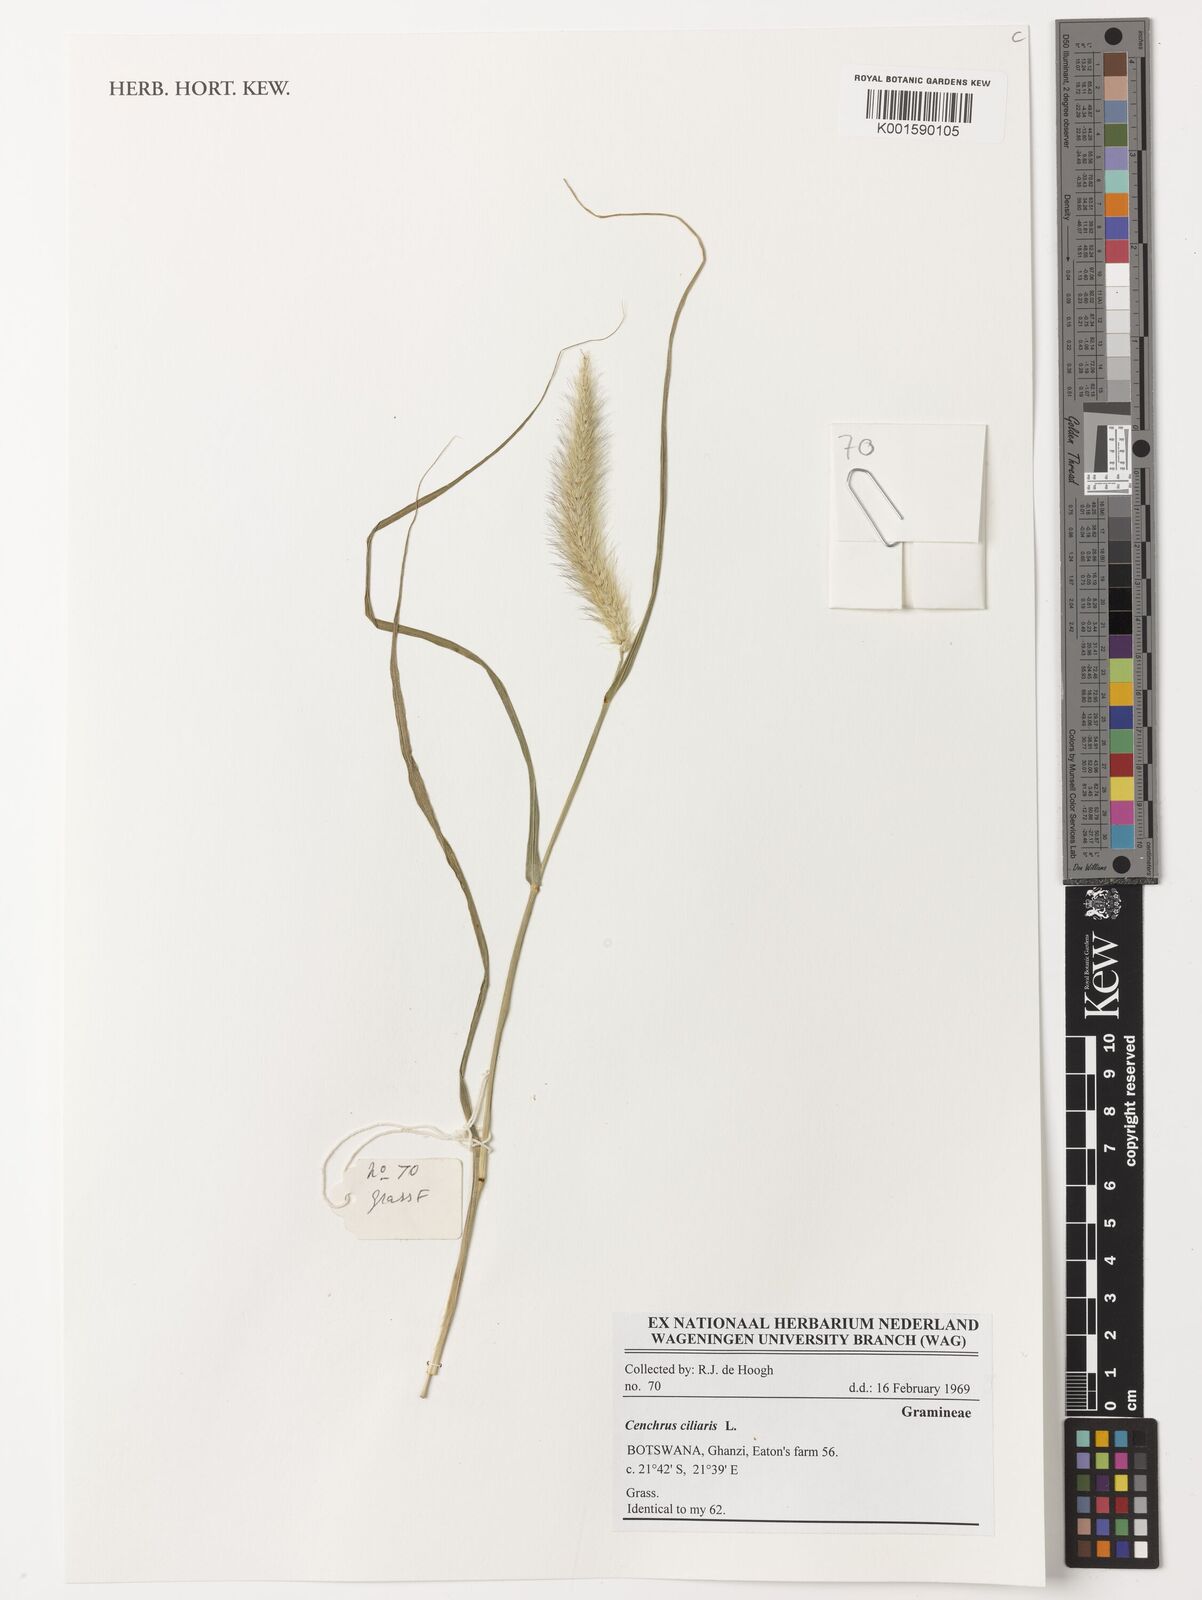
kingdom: Plantae
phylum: Tracheophyta
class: Liliopsida
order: Poales
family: Poaceae
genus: Cenchrus
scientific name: Cenchrus ciliaris
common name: Buffelgrass
